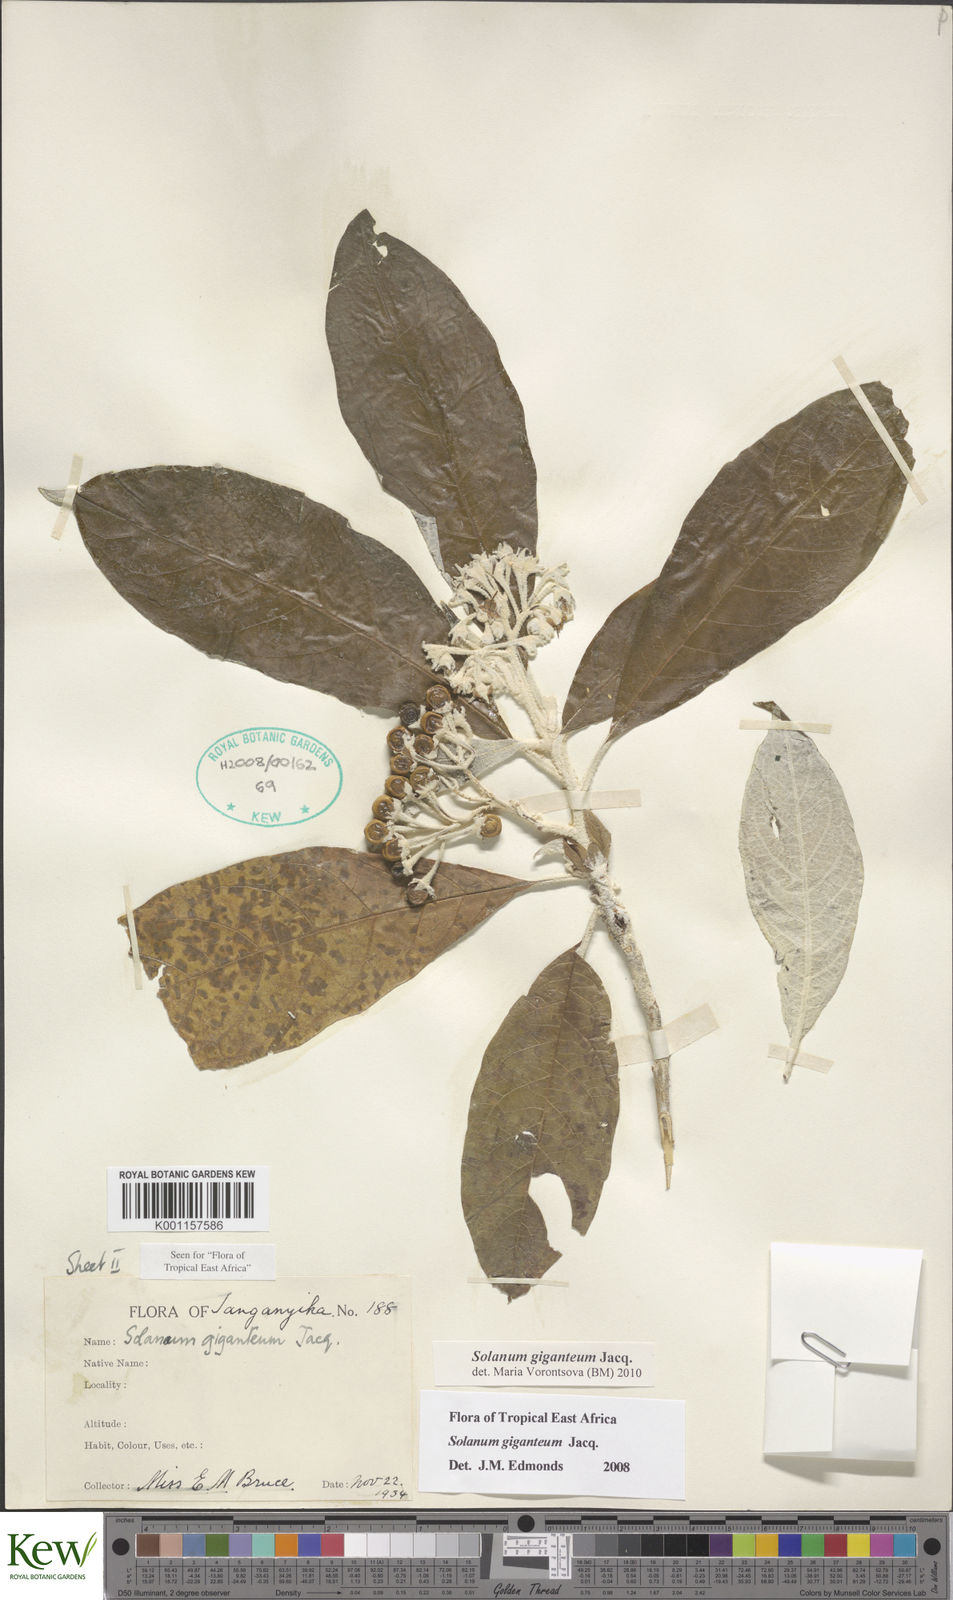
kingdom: Plantae
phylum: Tracheophyta
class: Magnoliopsida
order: Solanales
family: Solanaceae
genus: Solanum
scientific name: Solanum giganteum
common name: Healing-leaf-tree
